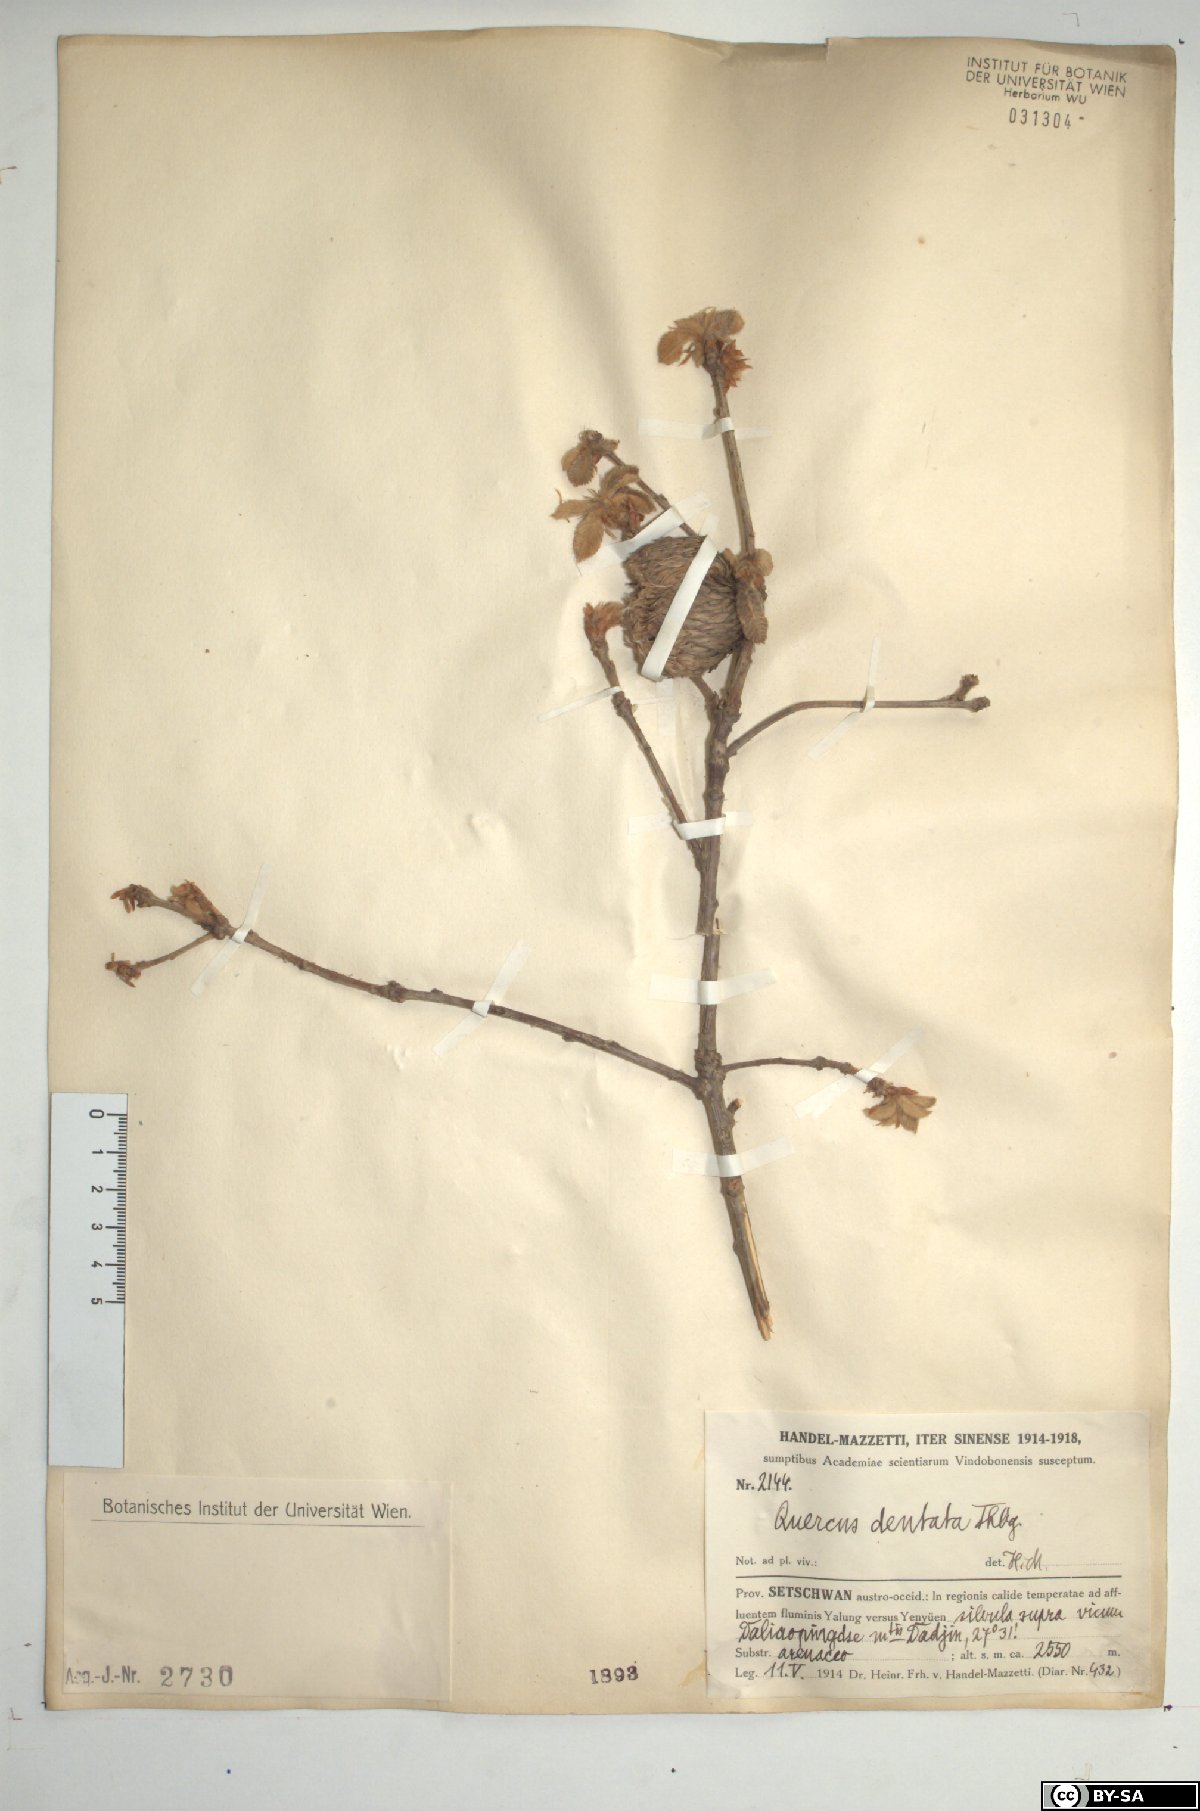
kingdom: Plantae
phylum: Tracheophyta
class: Magnoliopsida
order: Fagales
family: Fagaceae
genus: Quercus
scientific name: Quercus dentata
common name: Daimyo oak
